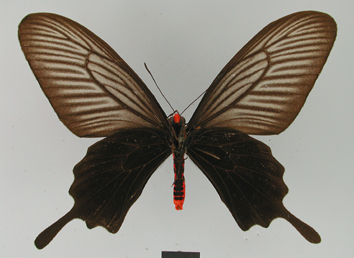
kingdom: Animalia
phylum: Arthropoda
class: Insecta
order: Lepidoptera
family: Papilionidae
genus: Pachliopta
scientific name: Pachliopta atropos
